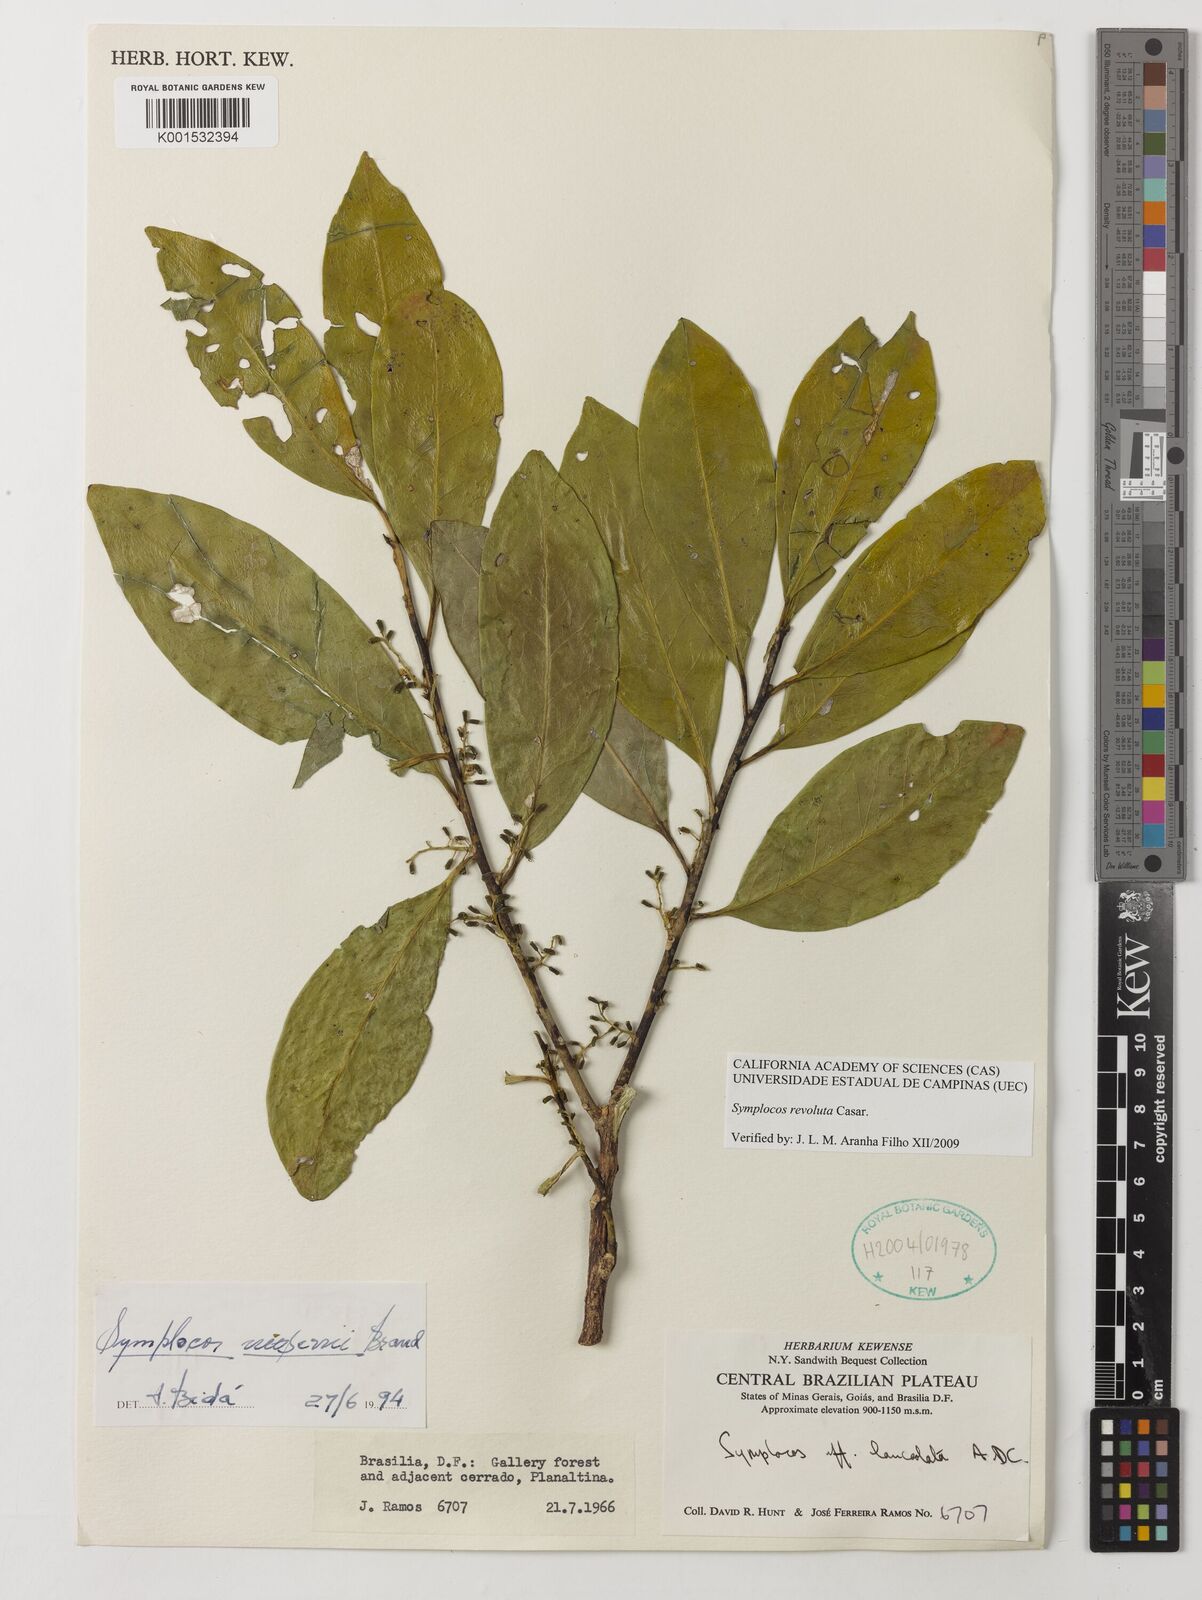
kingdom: Plantae
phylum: Tracheophyta
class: Magnoliopsida
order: Ericales
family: Symplocaceae
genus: Symplocos
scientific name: Symplocos revoluta
